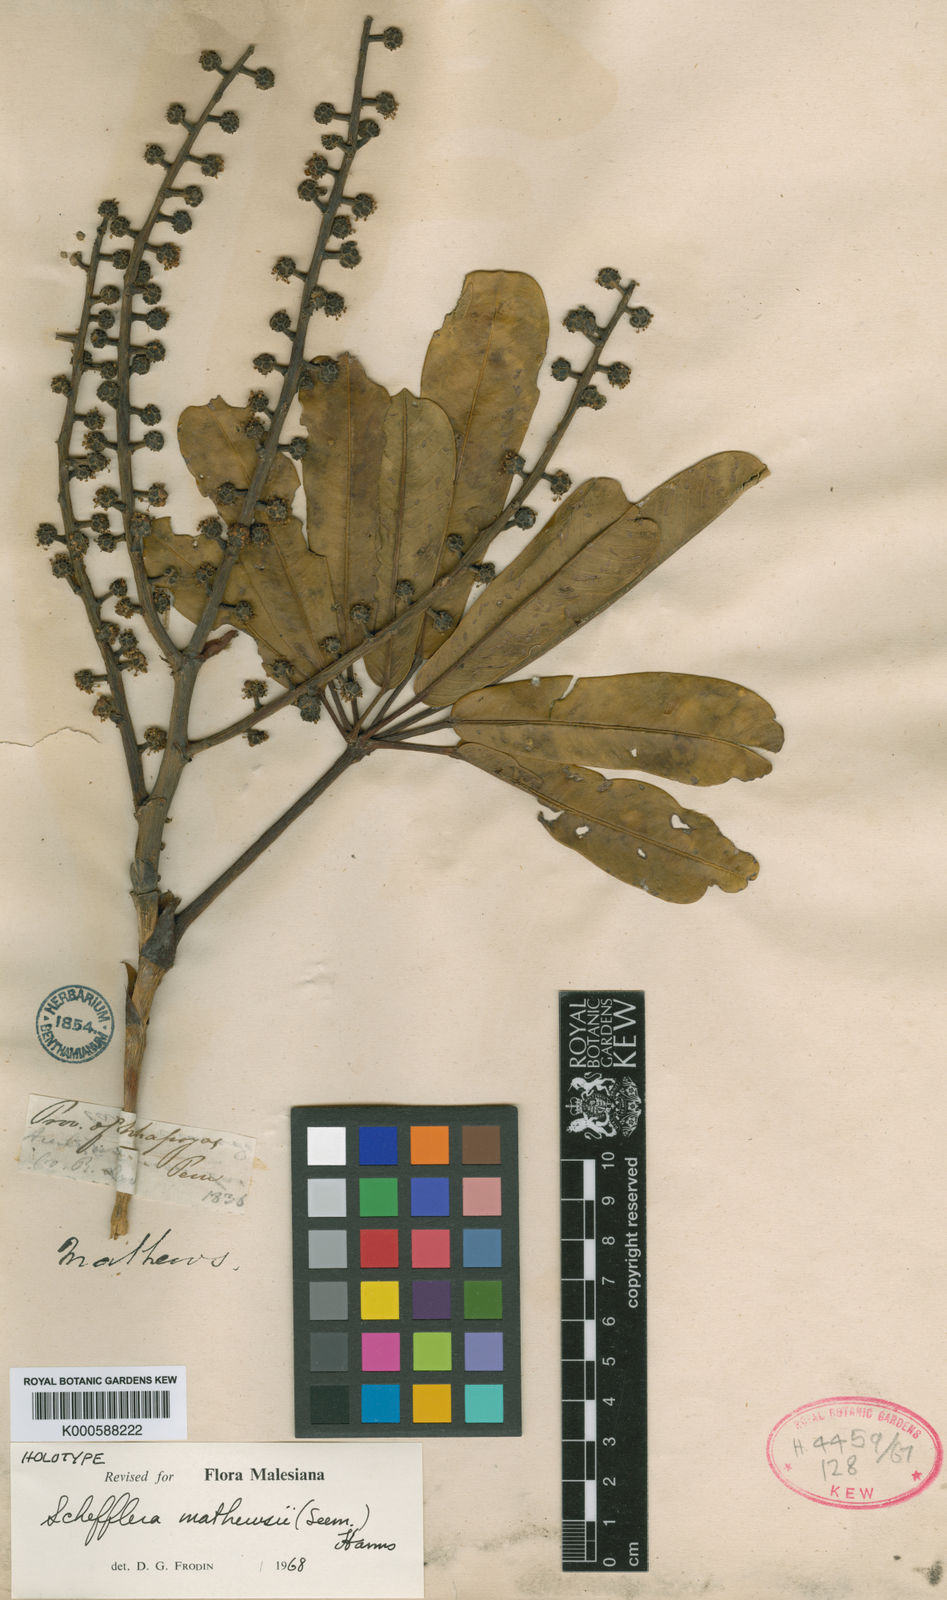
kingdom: Plantae
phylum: Tracheophyta
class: Magnoliopsida
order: Apiales
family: Araliaceae
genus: Sciodaphyllum
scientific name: Sciodaphyllum matthewsii
